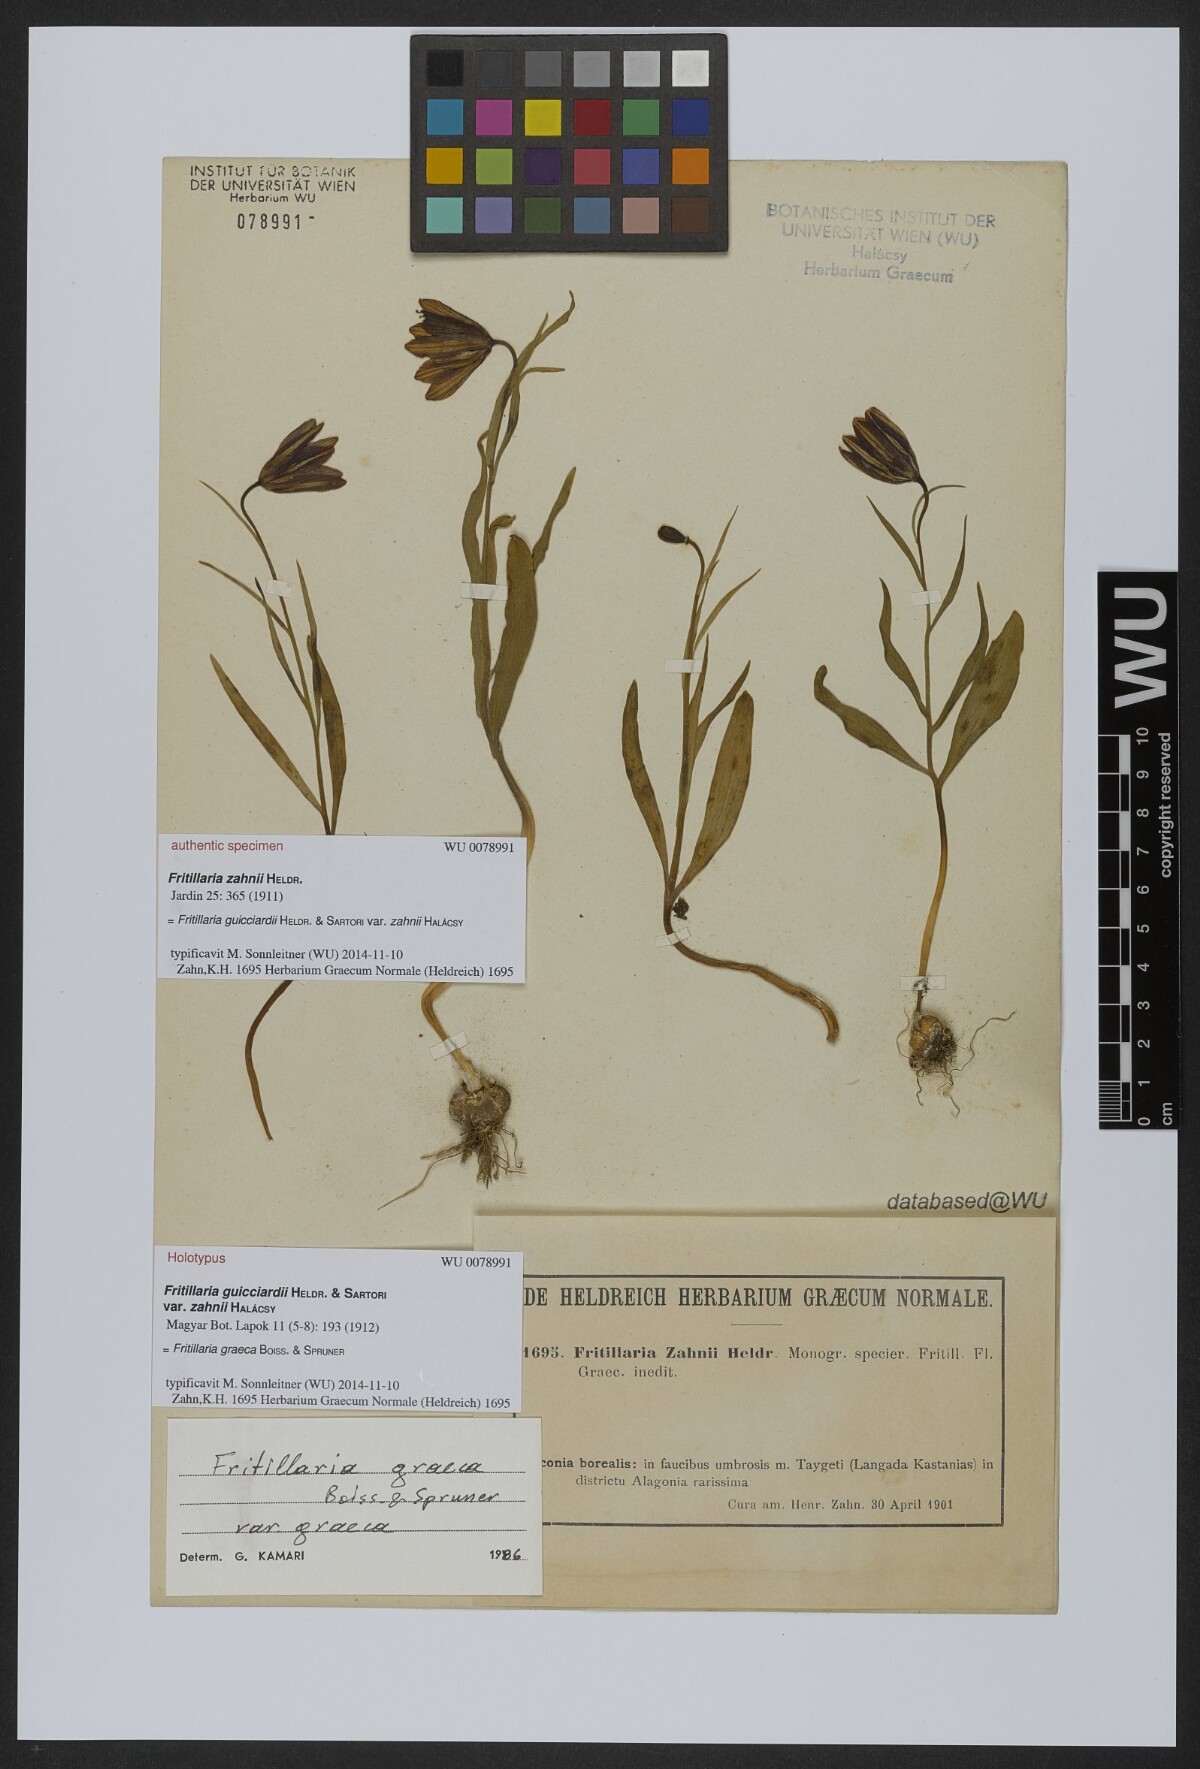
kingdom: Plantae
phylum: Tracheophyta
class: Liliopsida
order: Liliales
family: Liliaceae
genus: Fritillaria
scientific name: Fritillaria graeca
